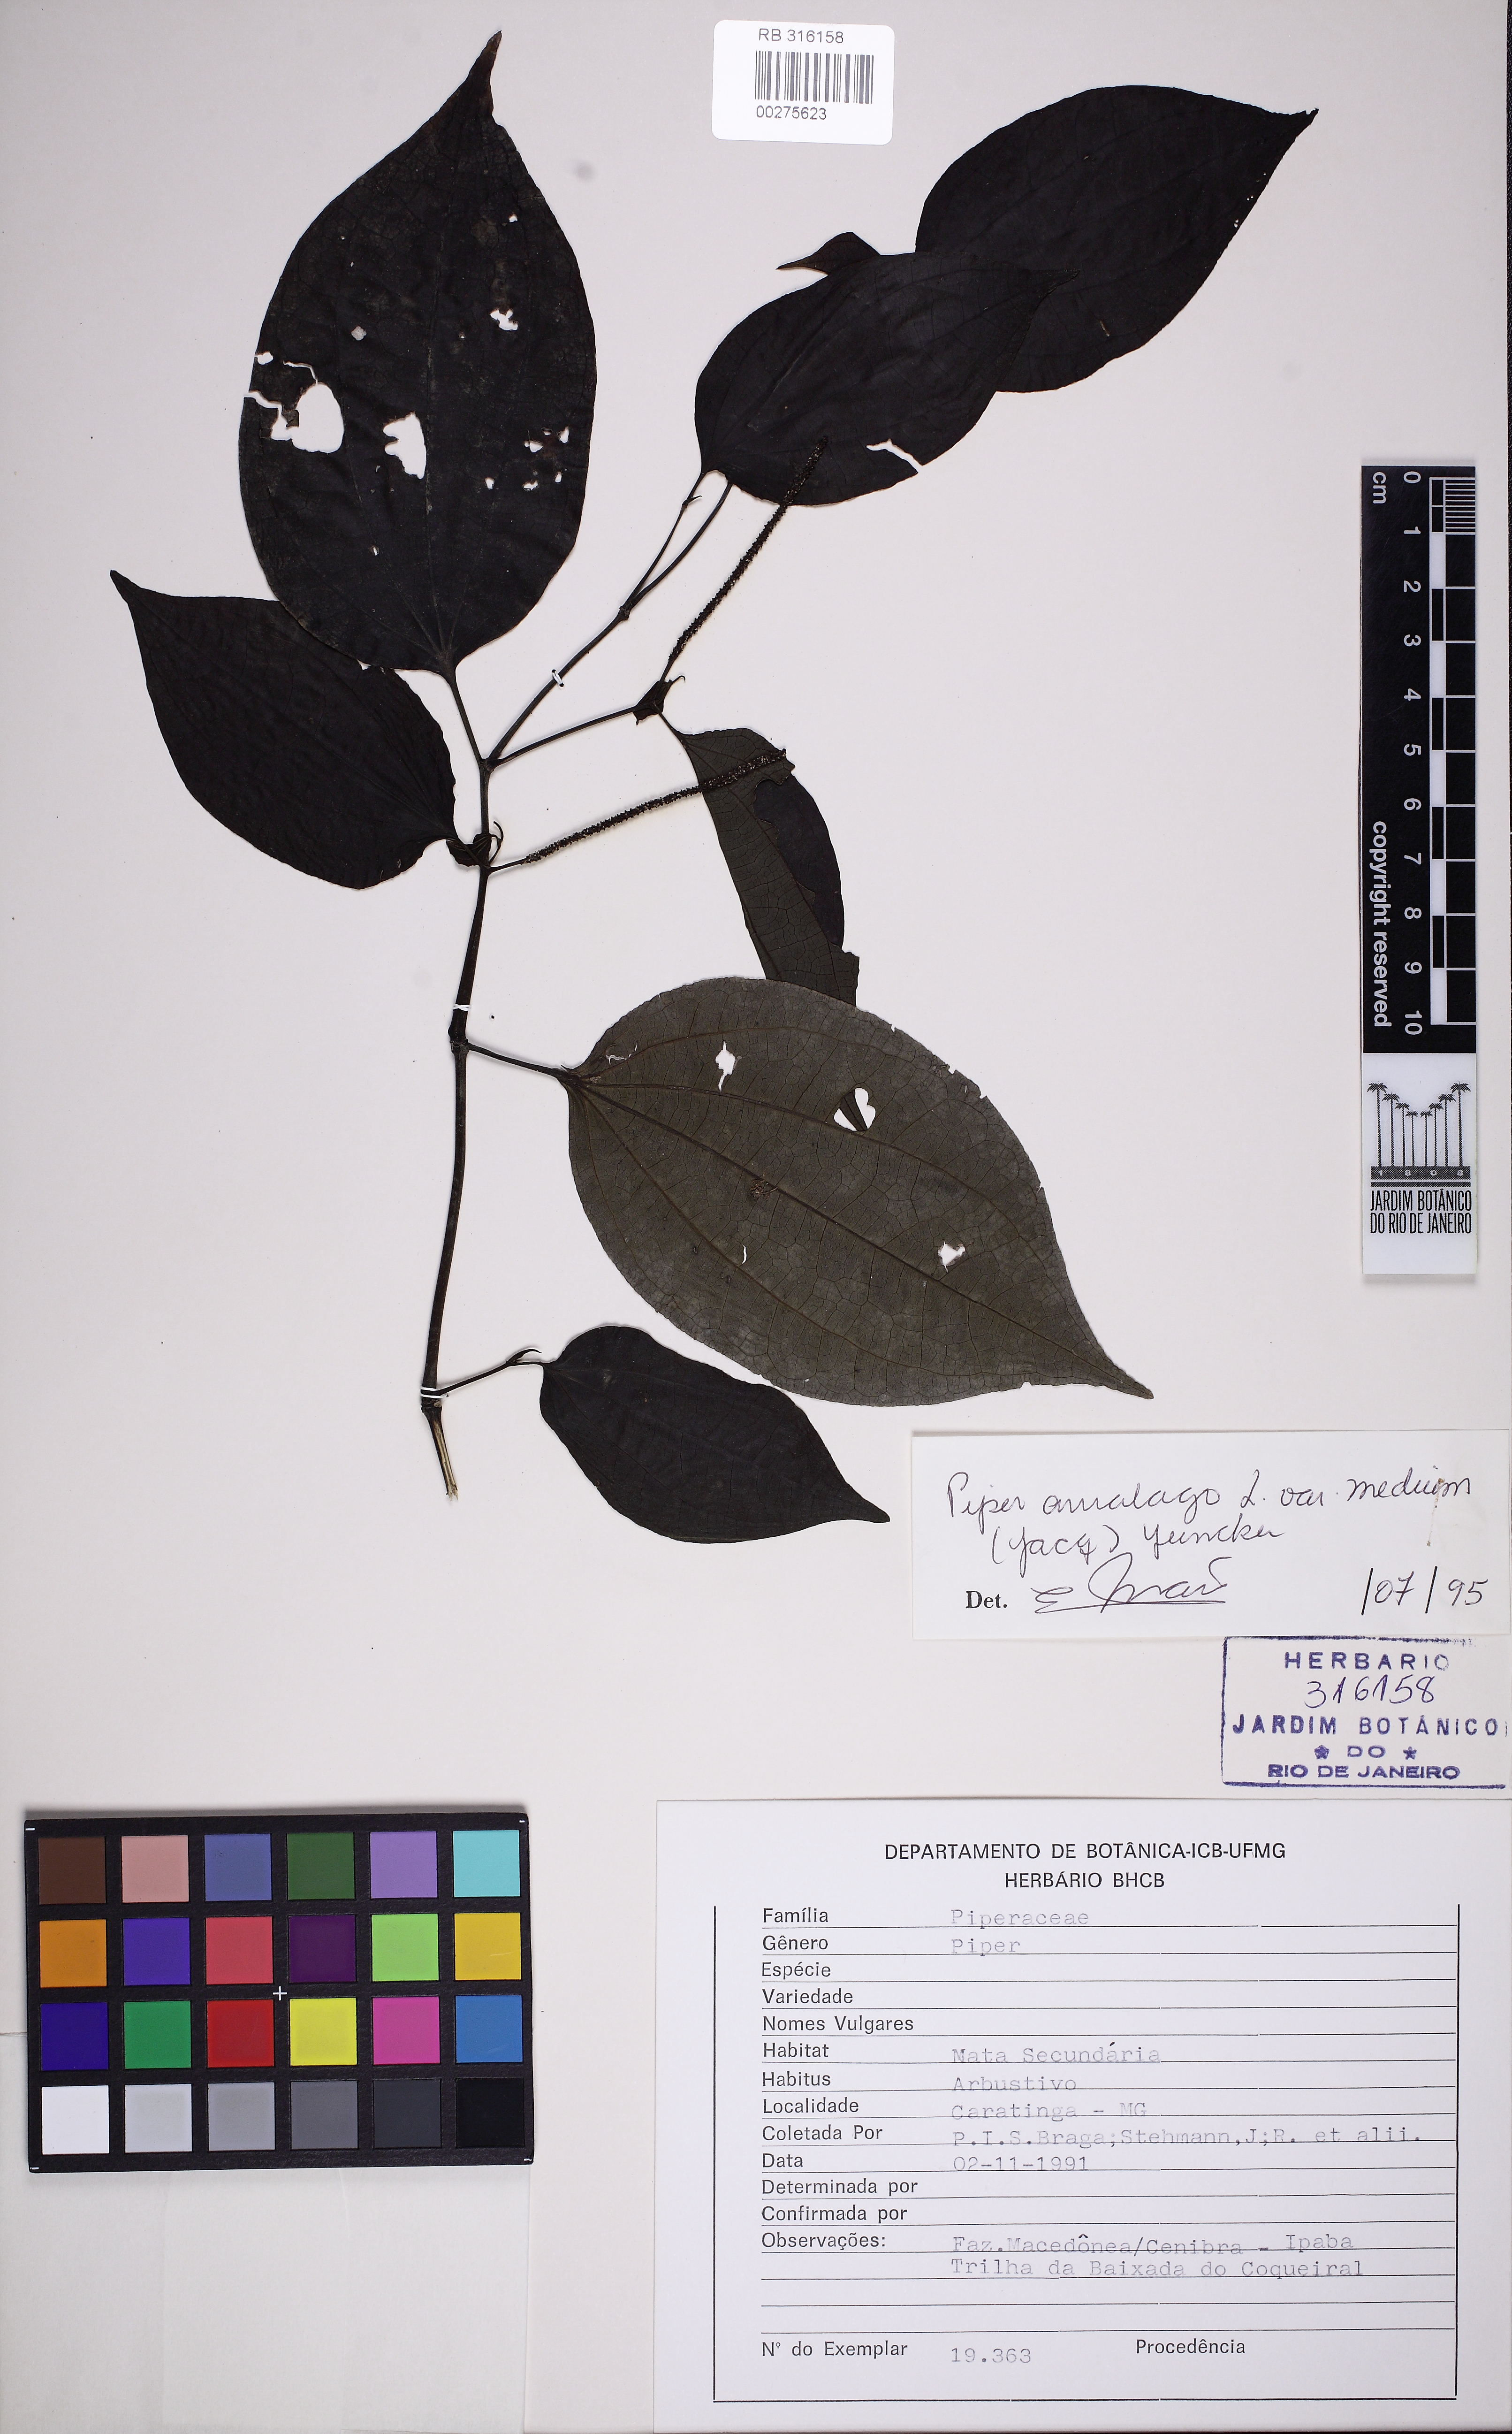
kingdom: Plantae
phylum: Tracheophyta
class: Magnoliopsida
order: Piperales
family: Piperaceae
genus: Piper
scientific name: Piper amalago
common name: Pepper-elder
